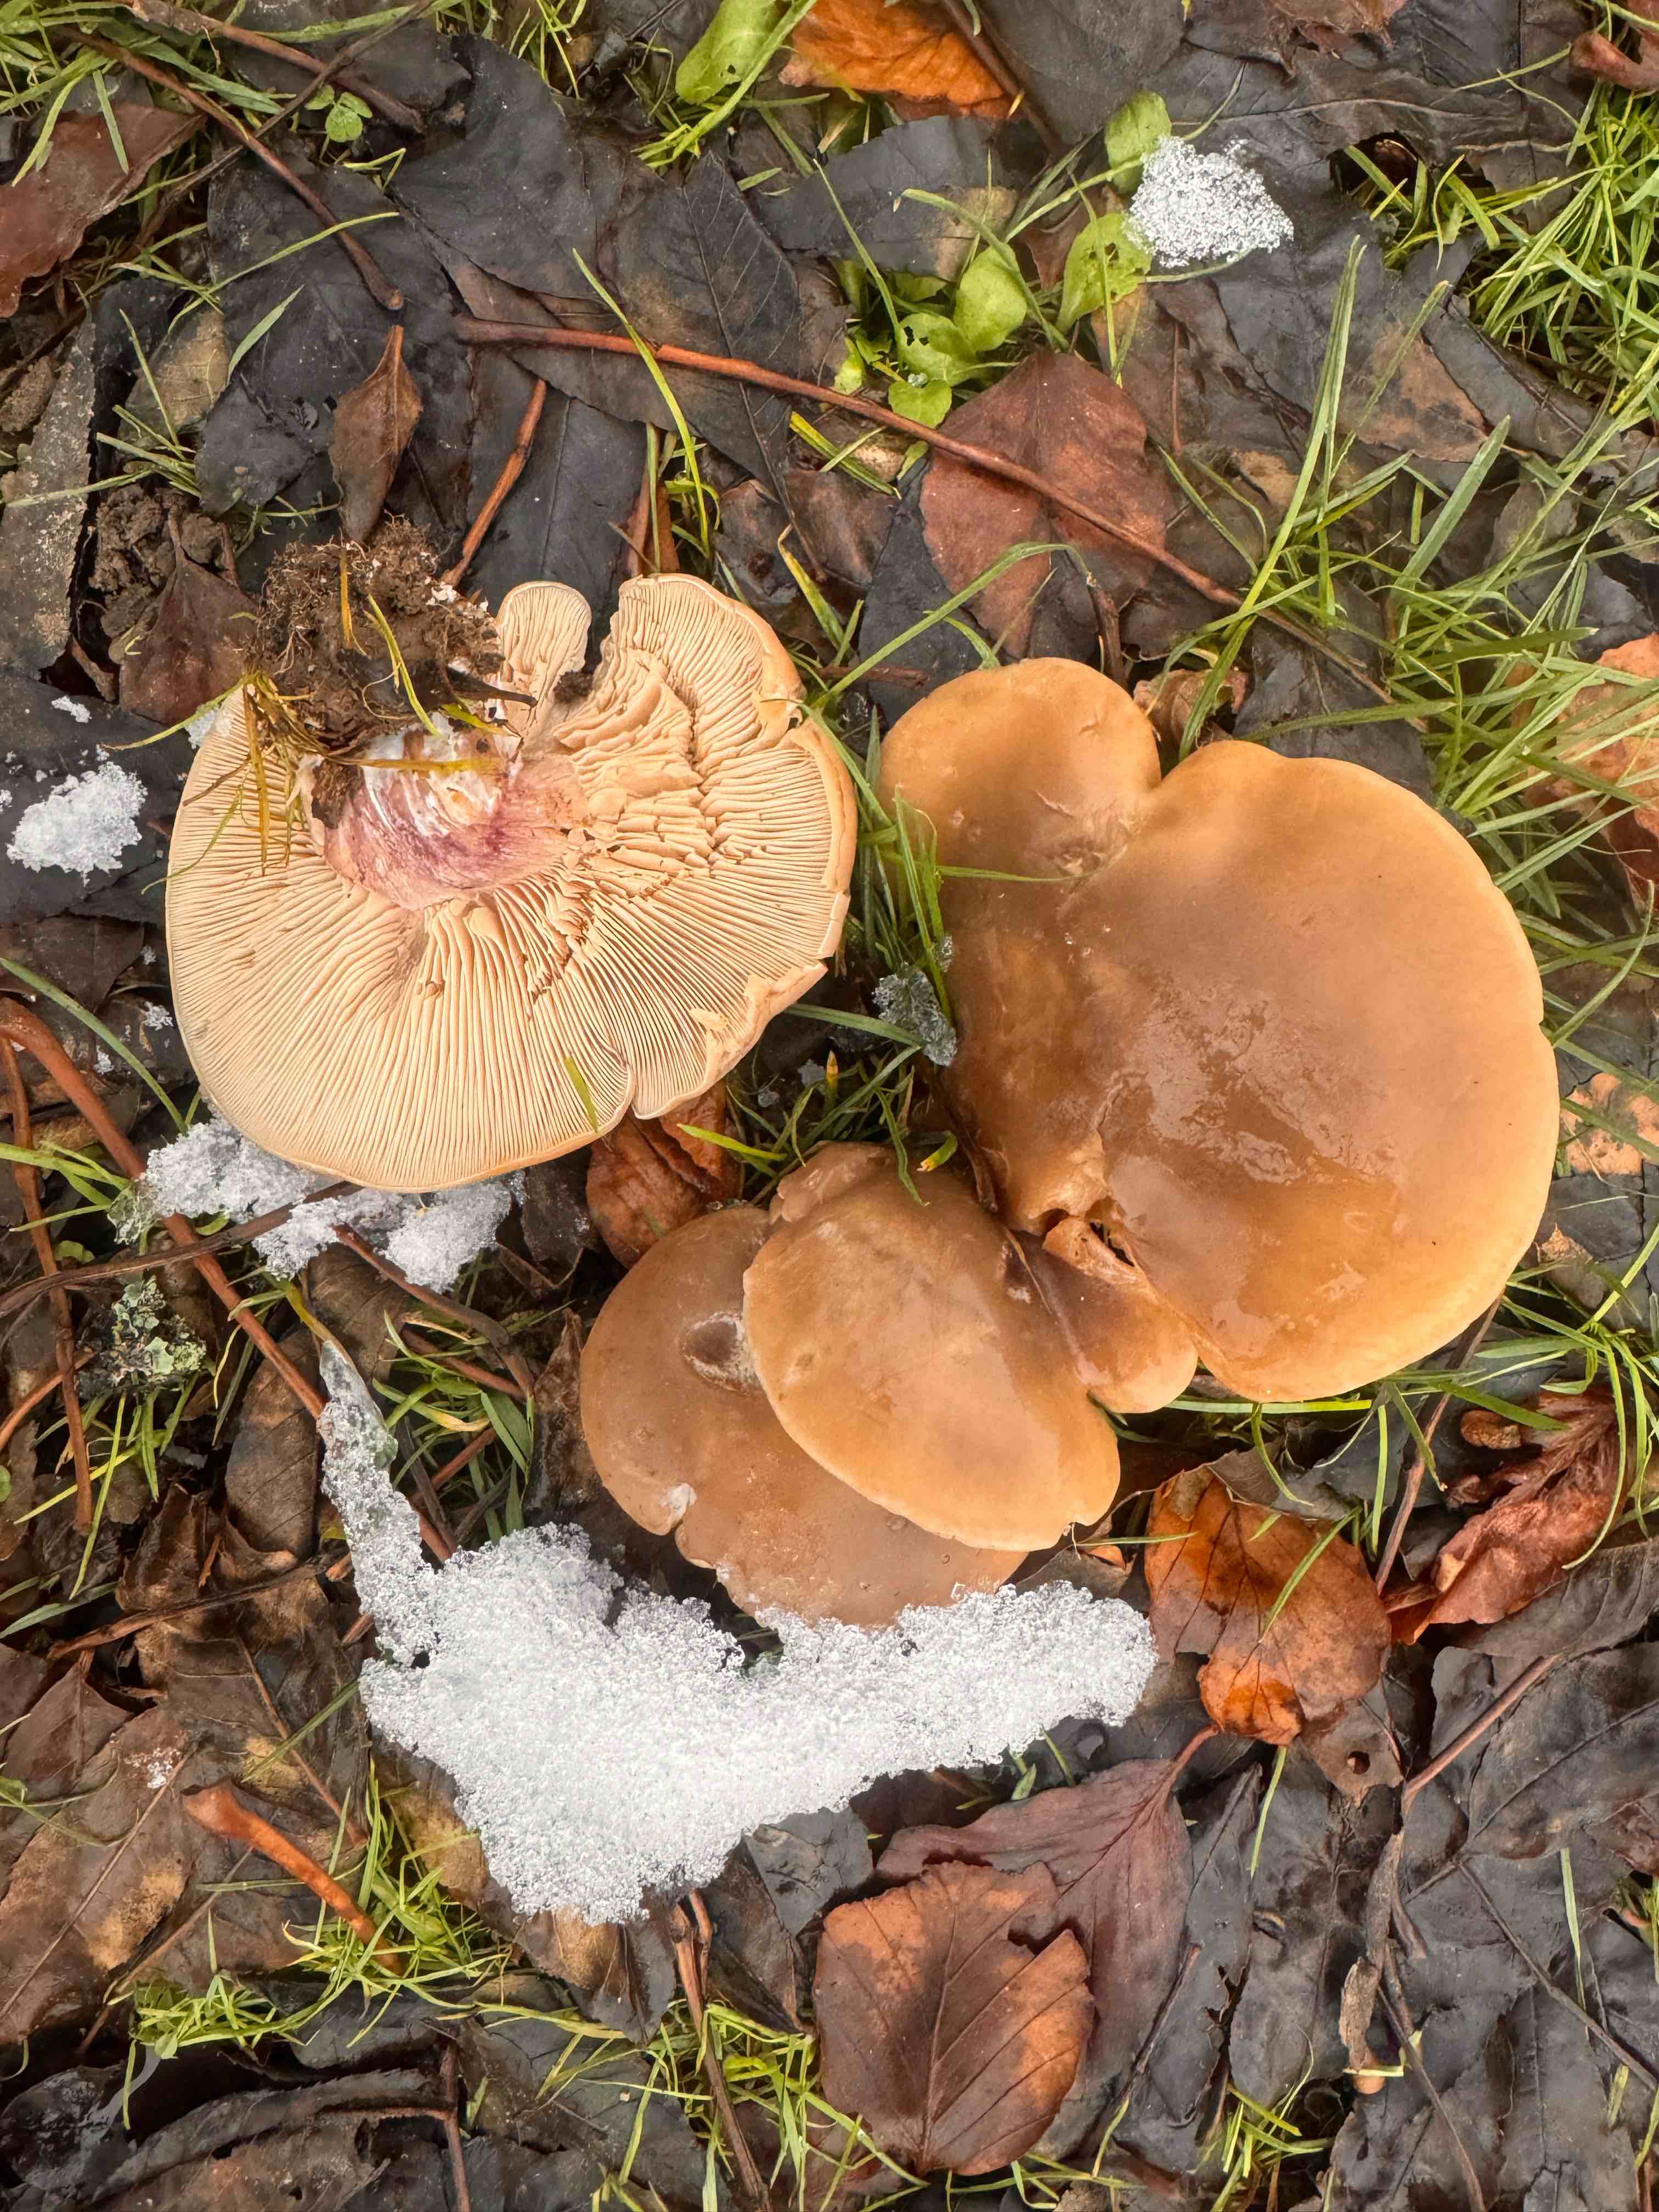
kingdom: Fungi
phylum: Basidiomycota
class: Agaricomycetes
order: Agaricales
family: Tricholomataceae
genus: Lepista
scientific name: Lepista personata
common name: bleg hekseringshat
